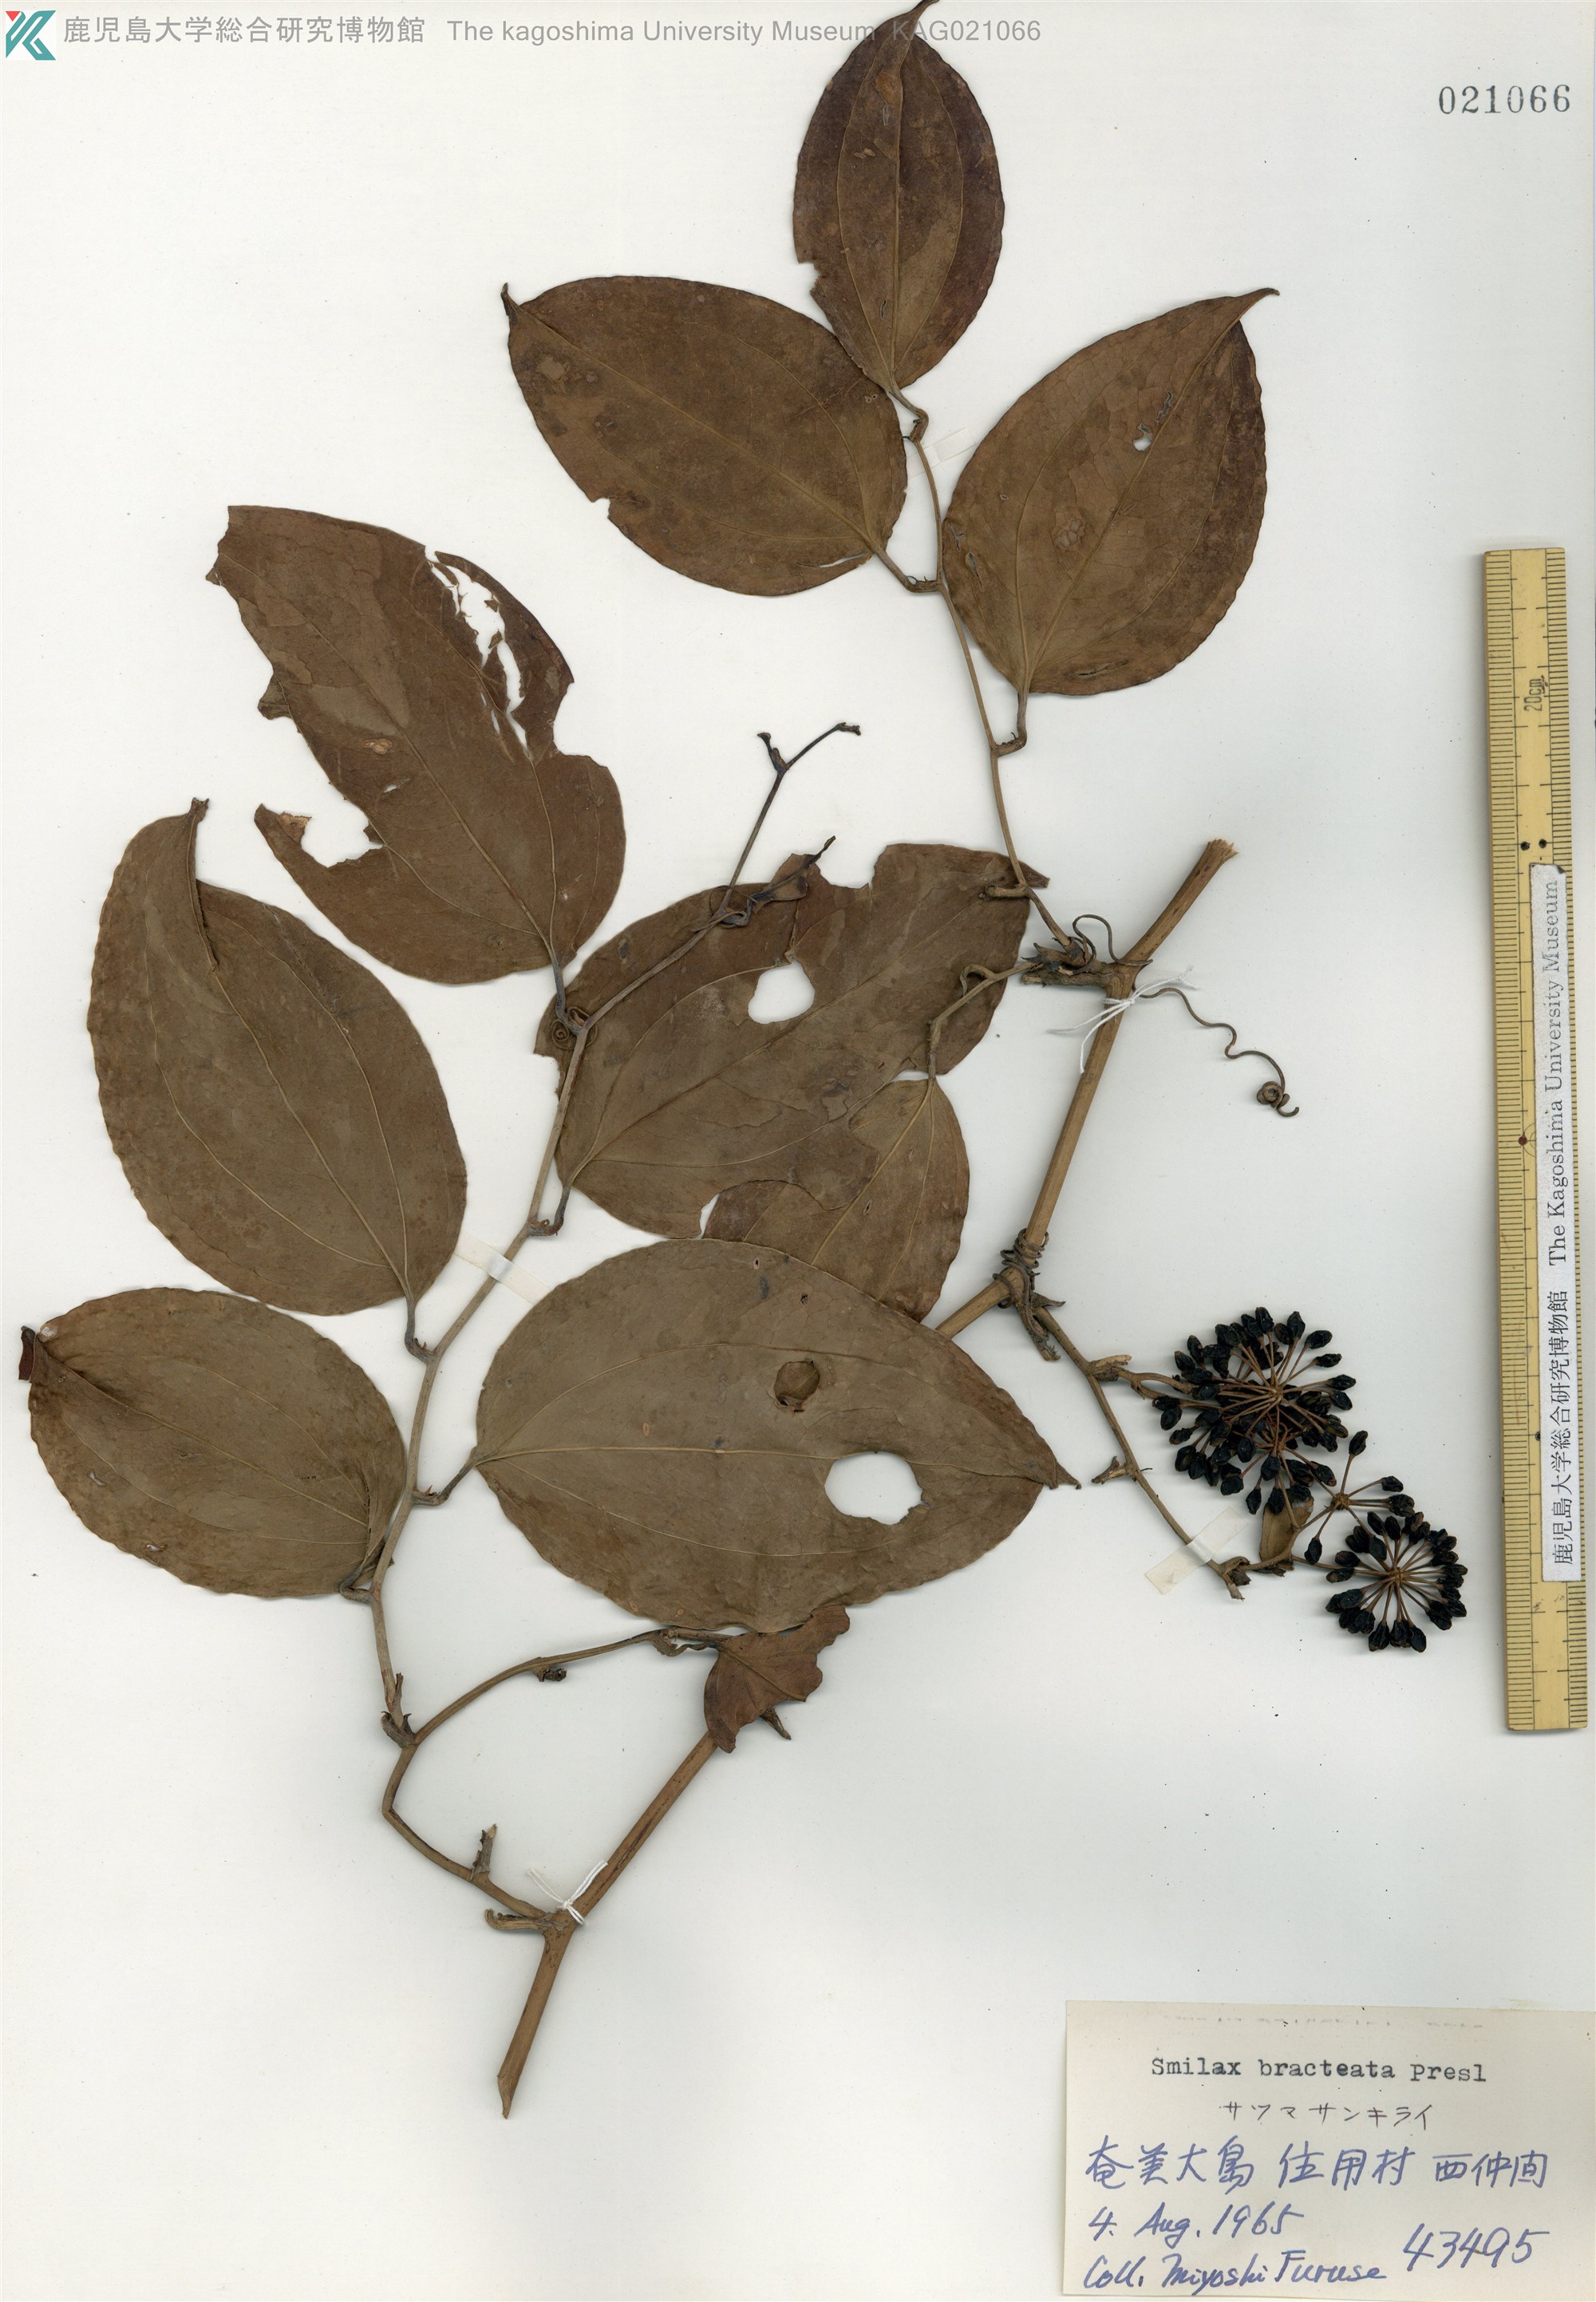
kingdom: Plantae
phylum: Tracheophyta
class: Liliopsida
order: Liliales
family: Smilacaceae
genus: Smilax
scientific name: Smilax bracteata
